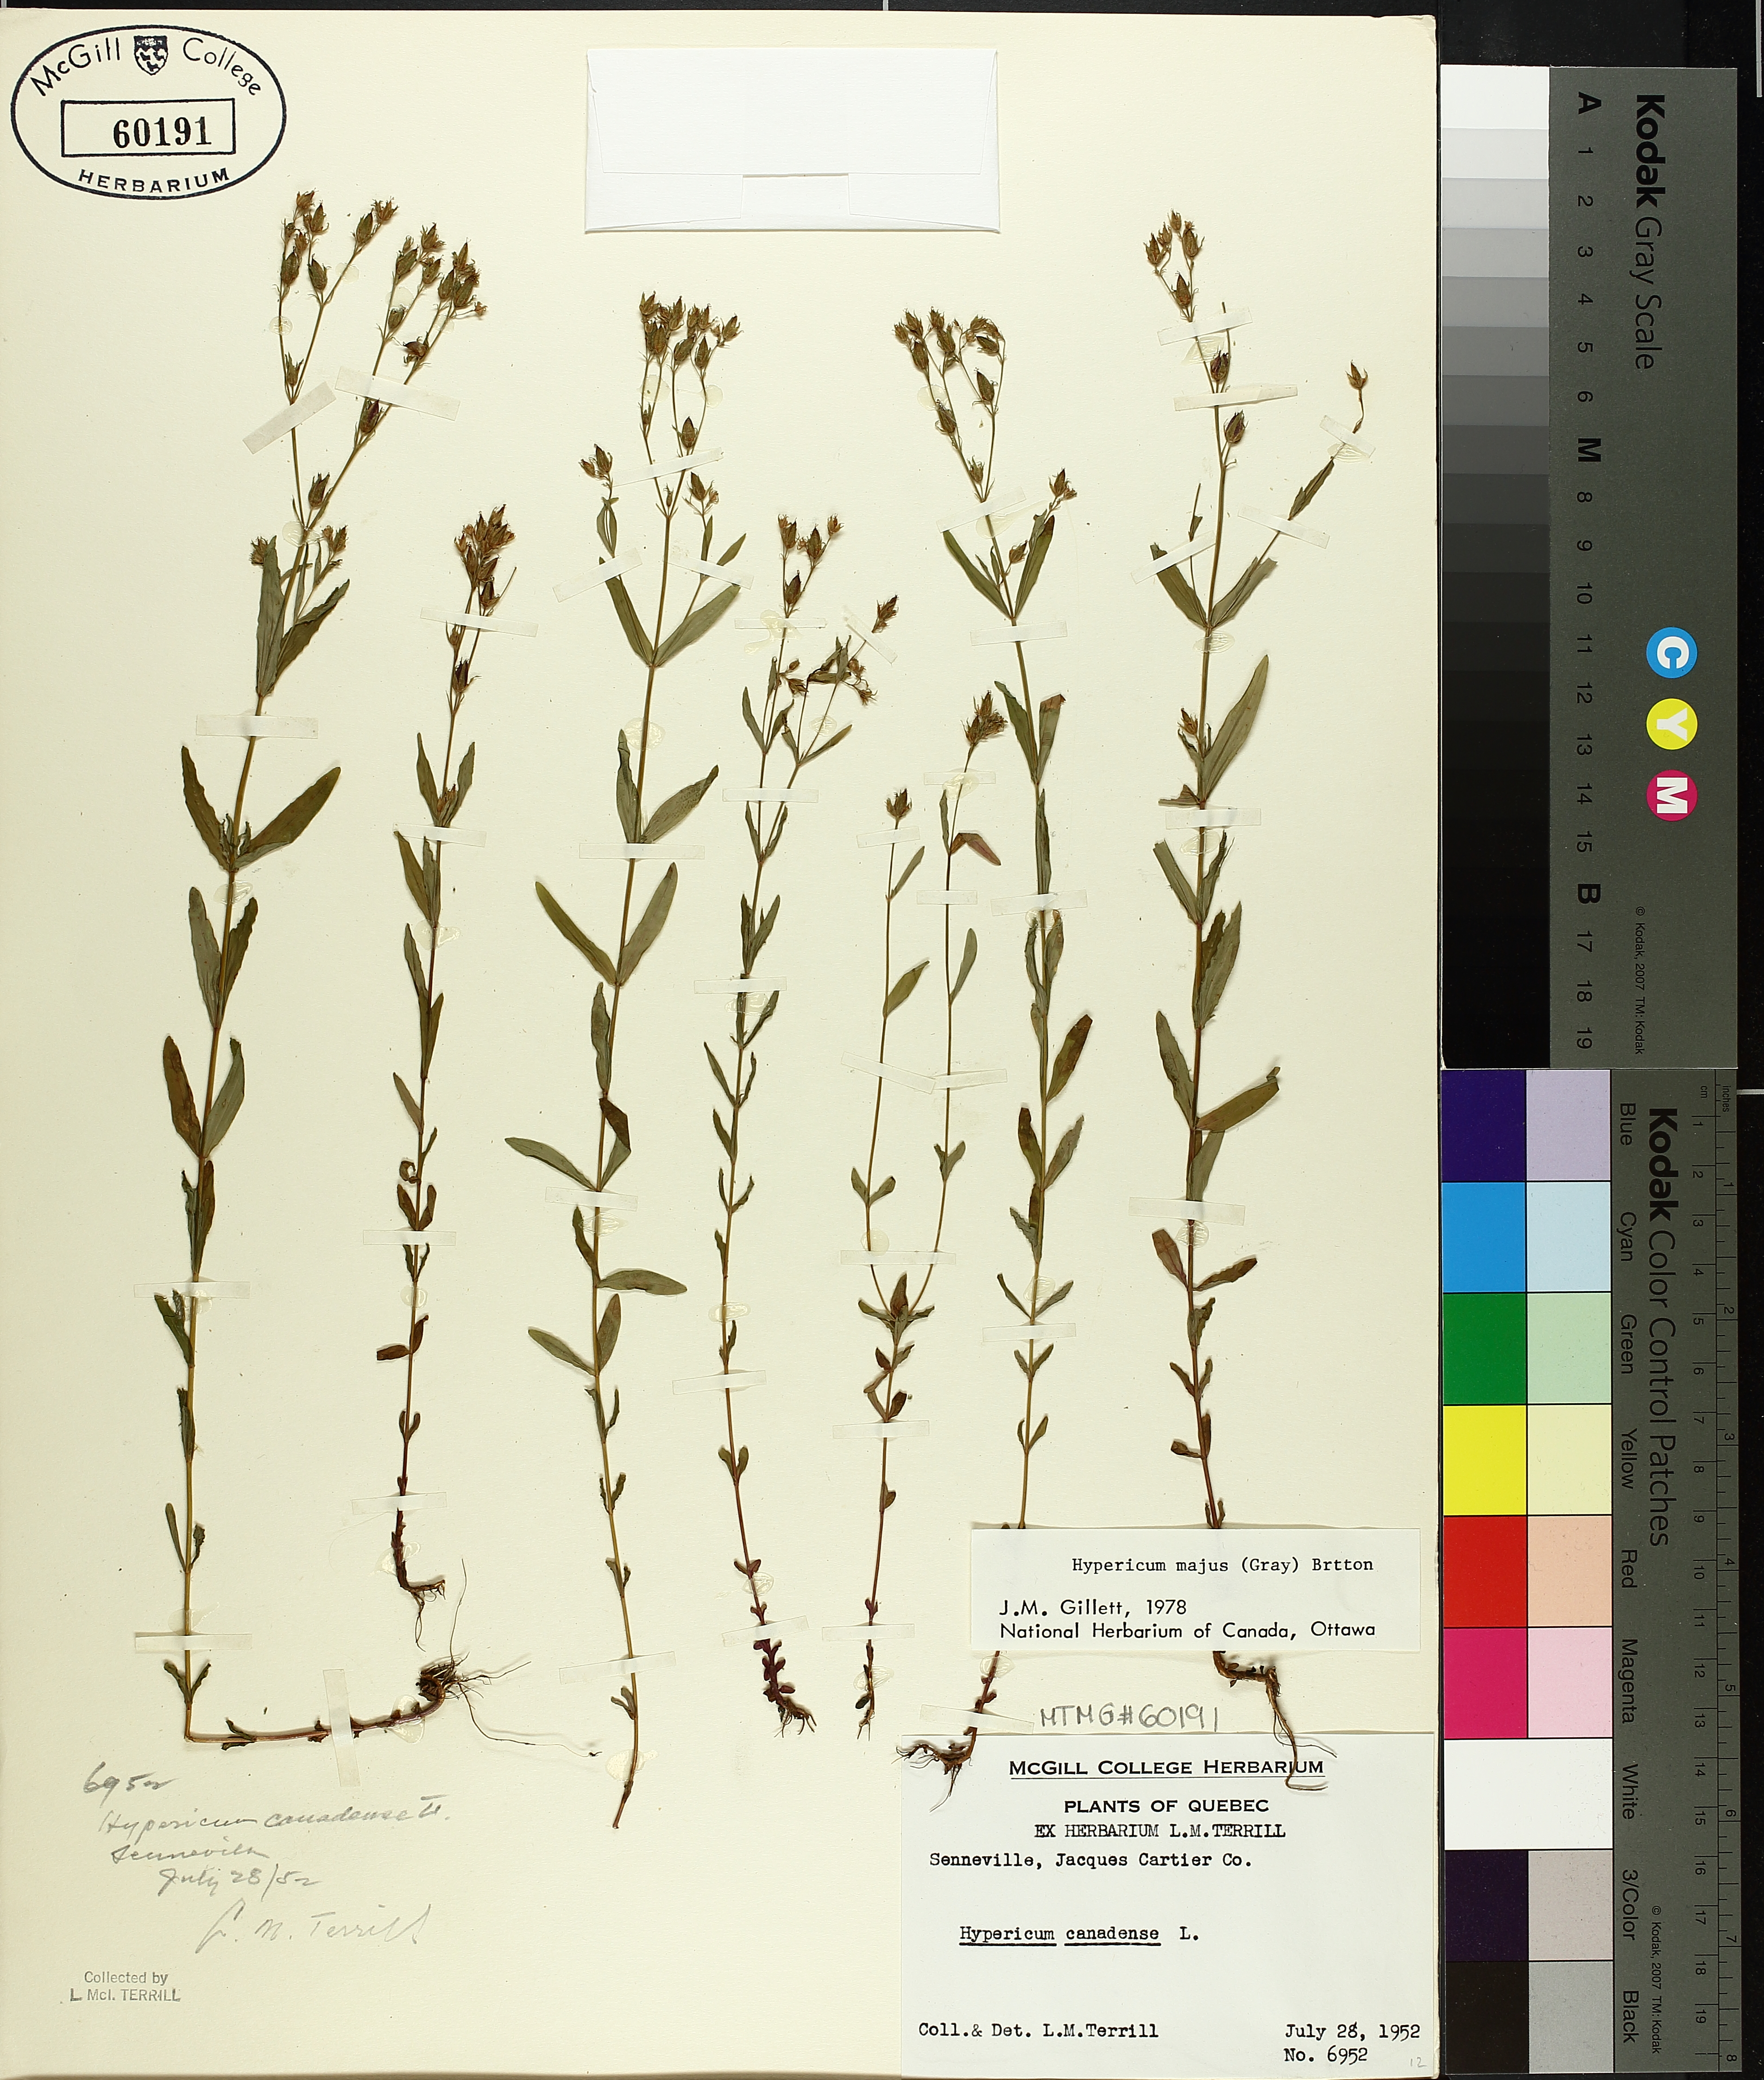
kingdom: Plantae
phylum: Tracheophyta
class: Magnoliopsida
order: Malpighiales
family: Hypericaceae
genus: Hypericum
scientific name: Hypericum canadense
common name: Irish st. john's-wort
